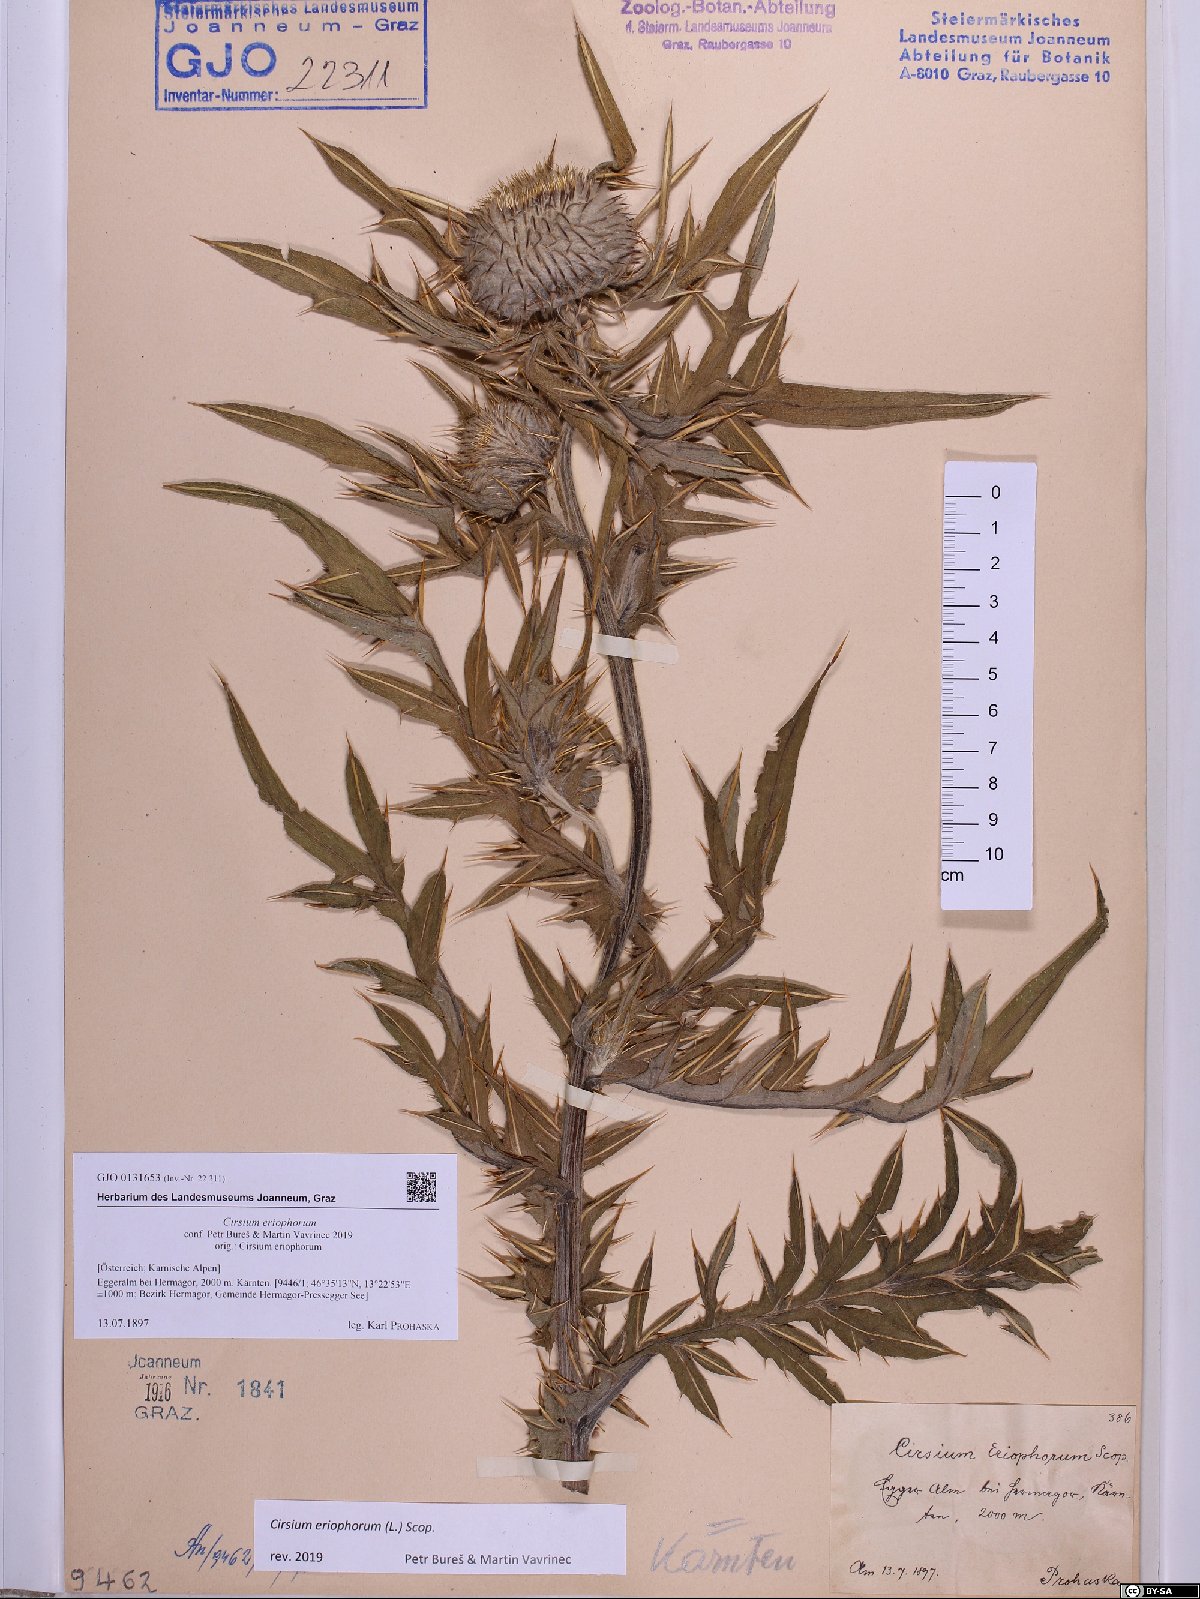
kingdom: Plantae
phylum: Tracheophyta
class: Magnoliopsida
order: Asterales
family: Asteraceae
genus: Lophiolepis
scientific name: Lophiolepis eriophora
